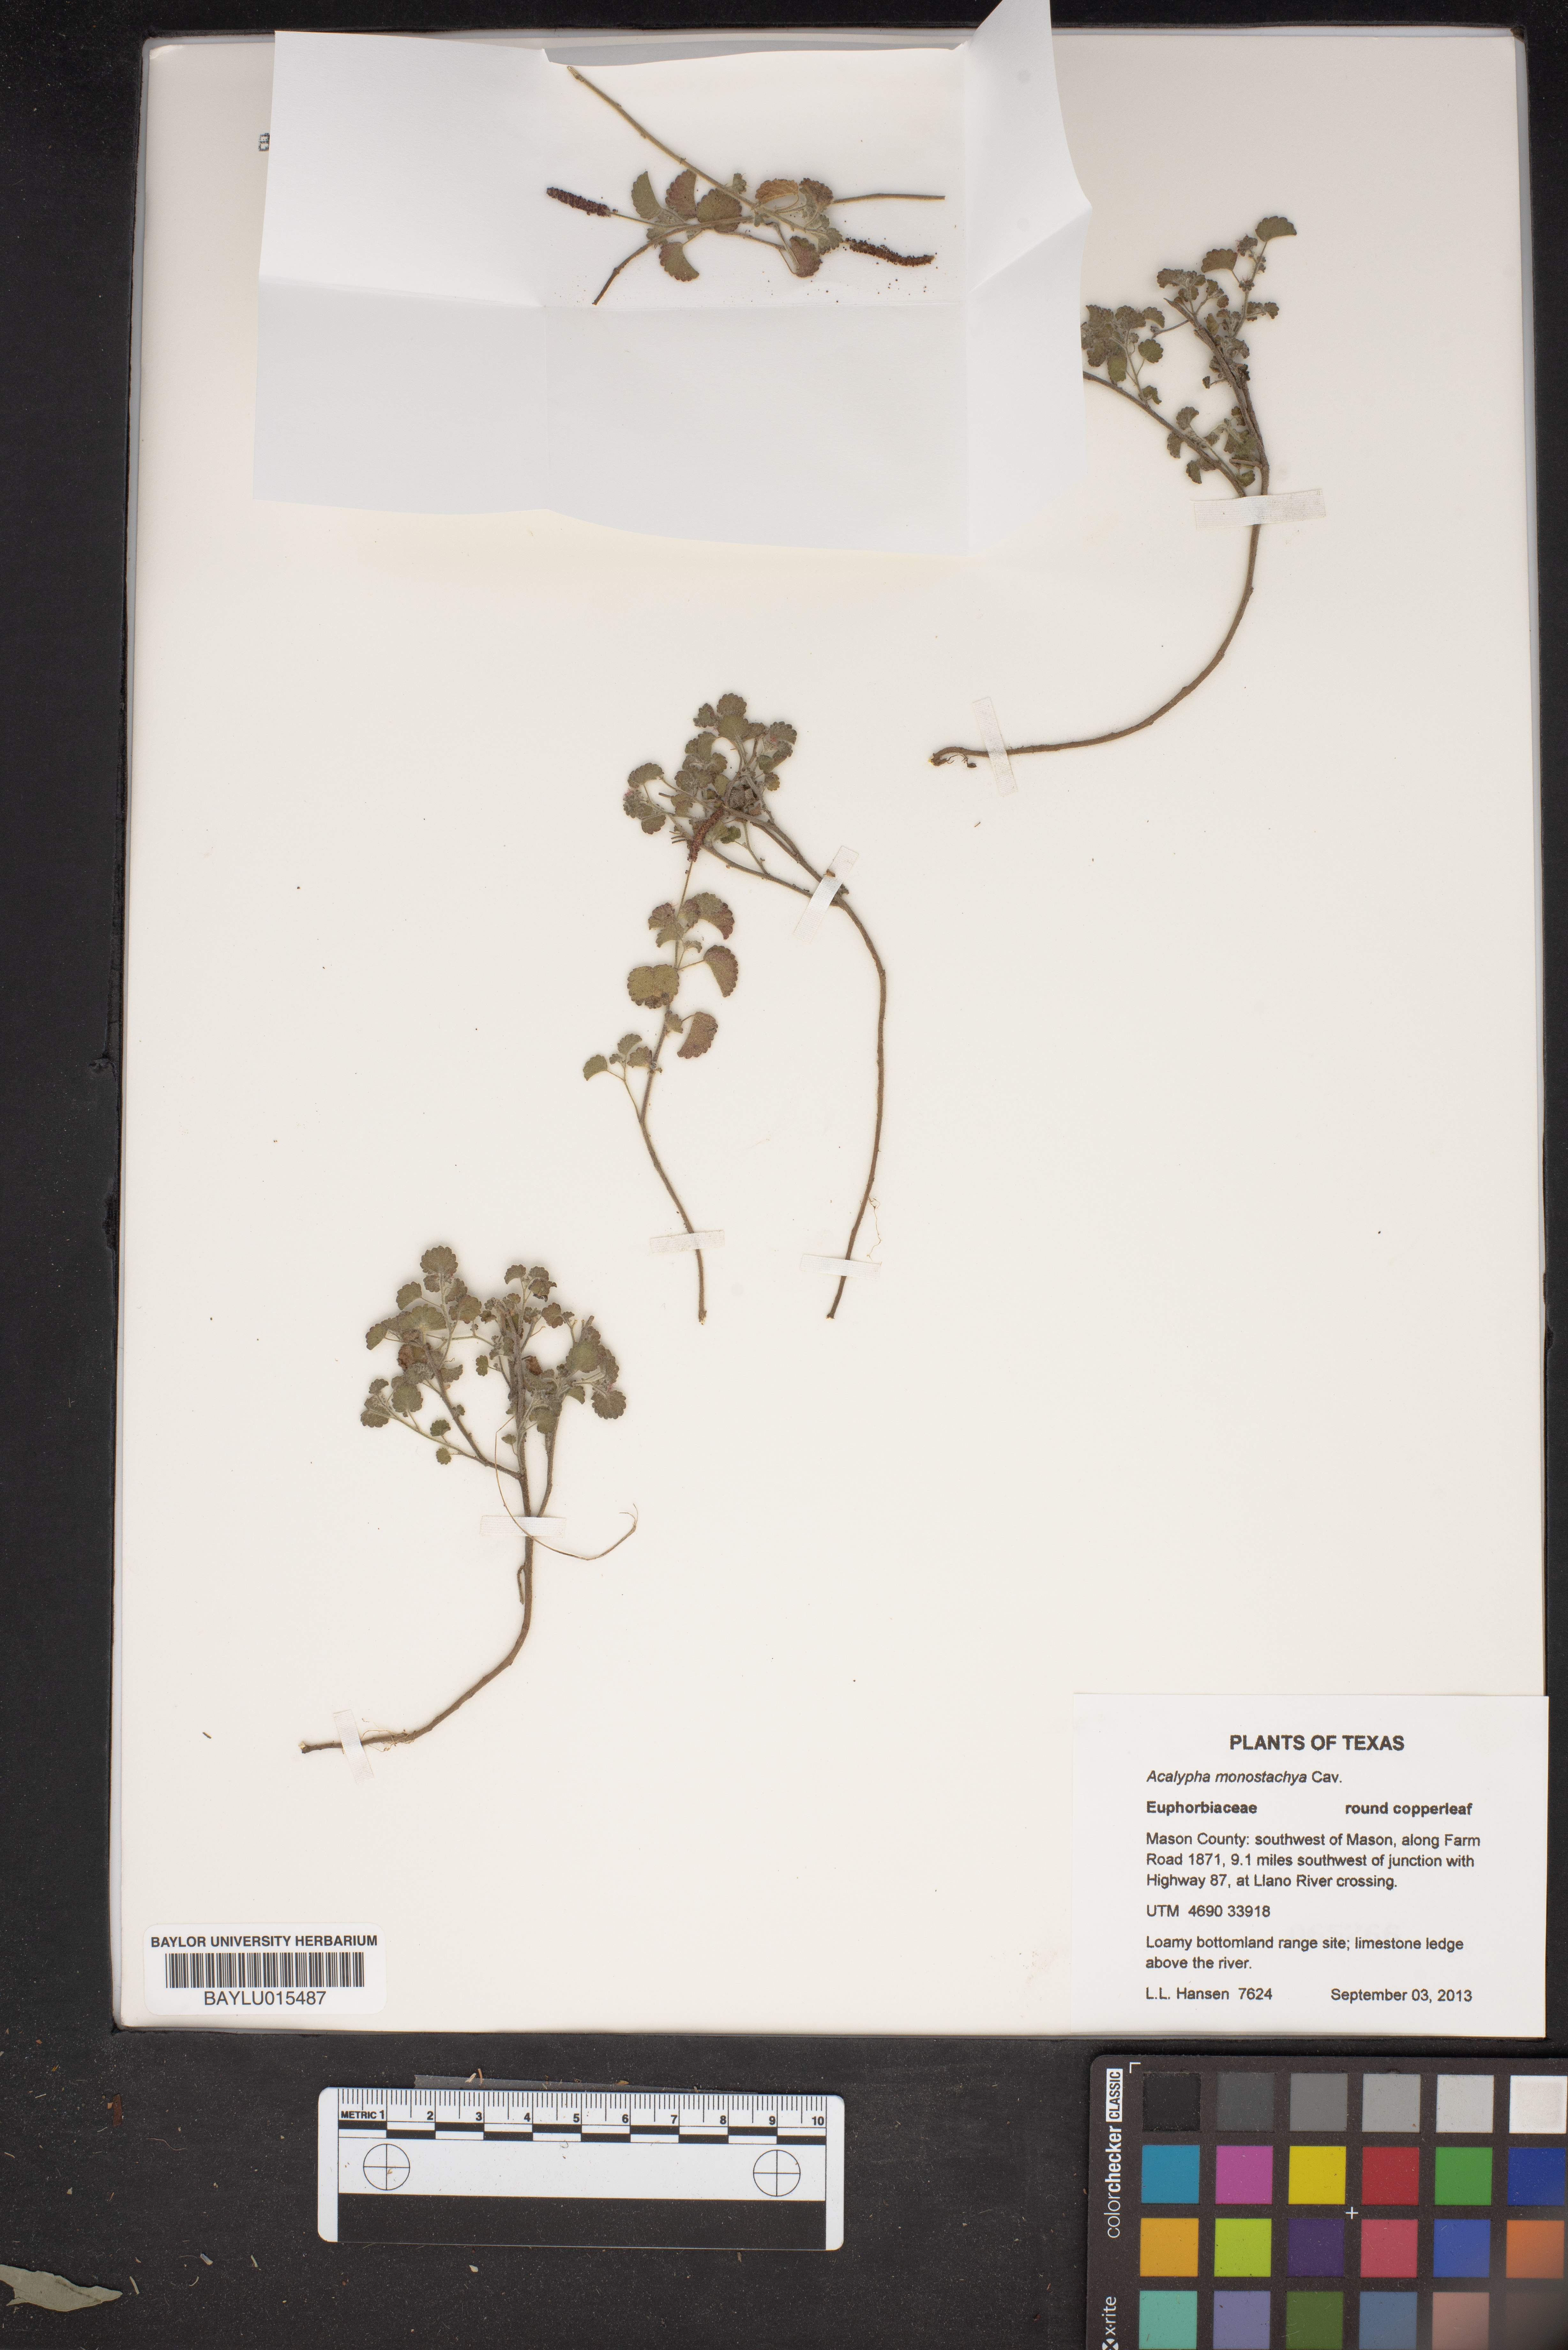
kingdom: Plantae
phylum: Tracheophyta
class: Magnoliopsida
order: Malpighiales
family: Euphorbiaceae
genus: Acalypha
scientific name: Acalypha monostachya
